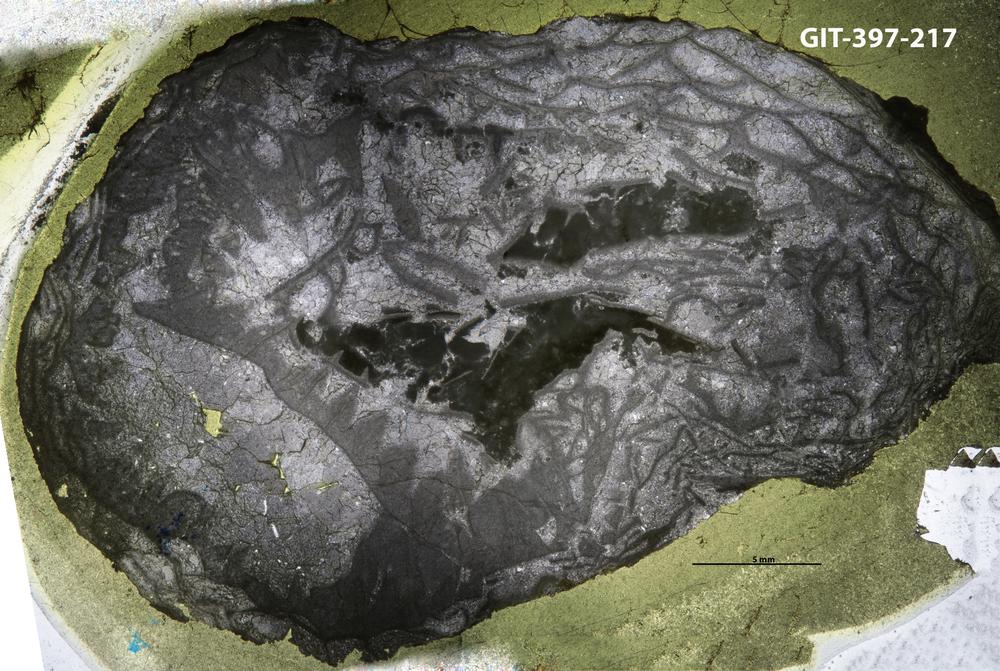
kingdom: Animalia
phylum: Cnidaria
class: Anthozoa
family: Ketophyllidae
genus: Dokophyllum
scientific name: Dokophyllum
